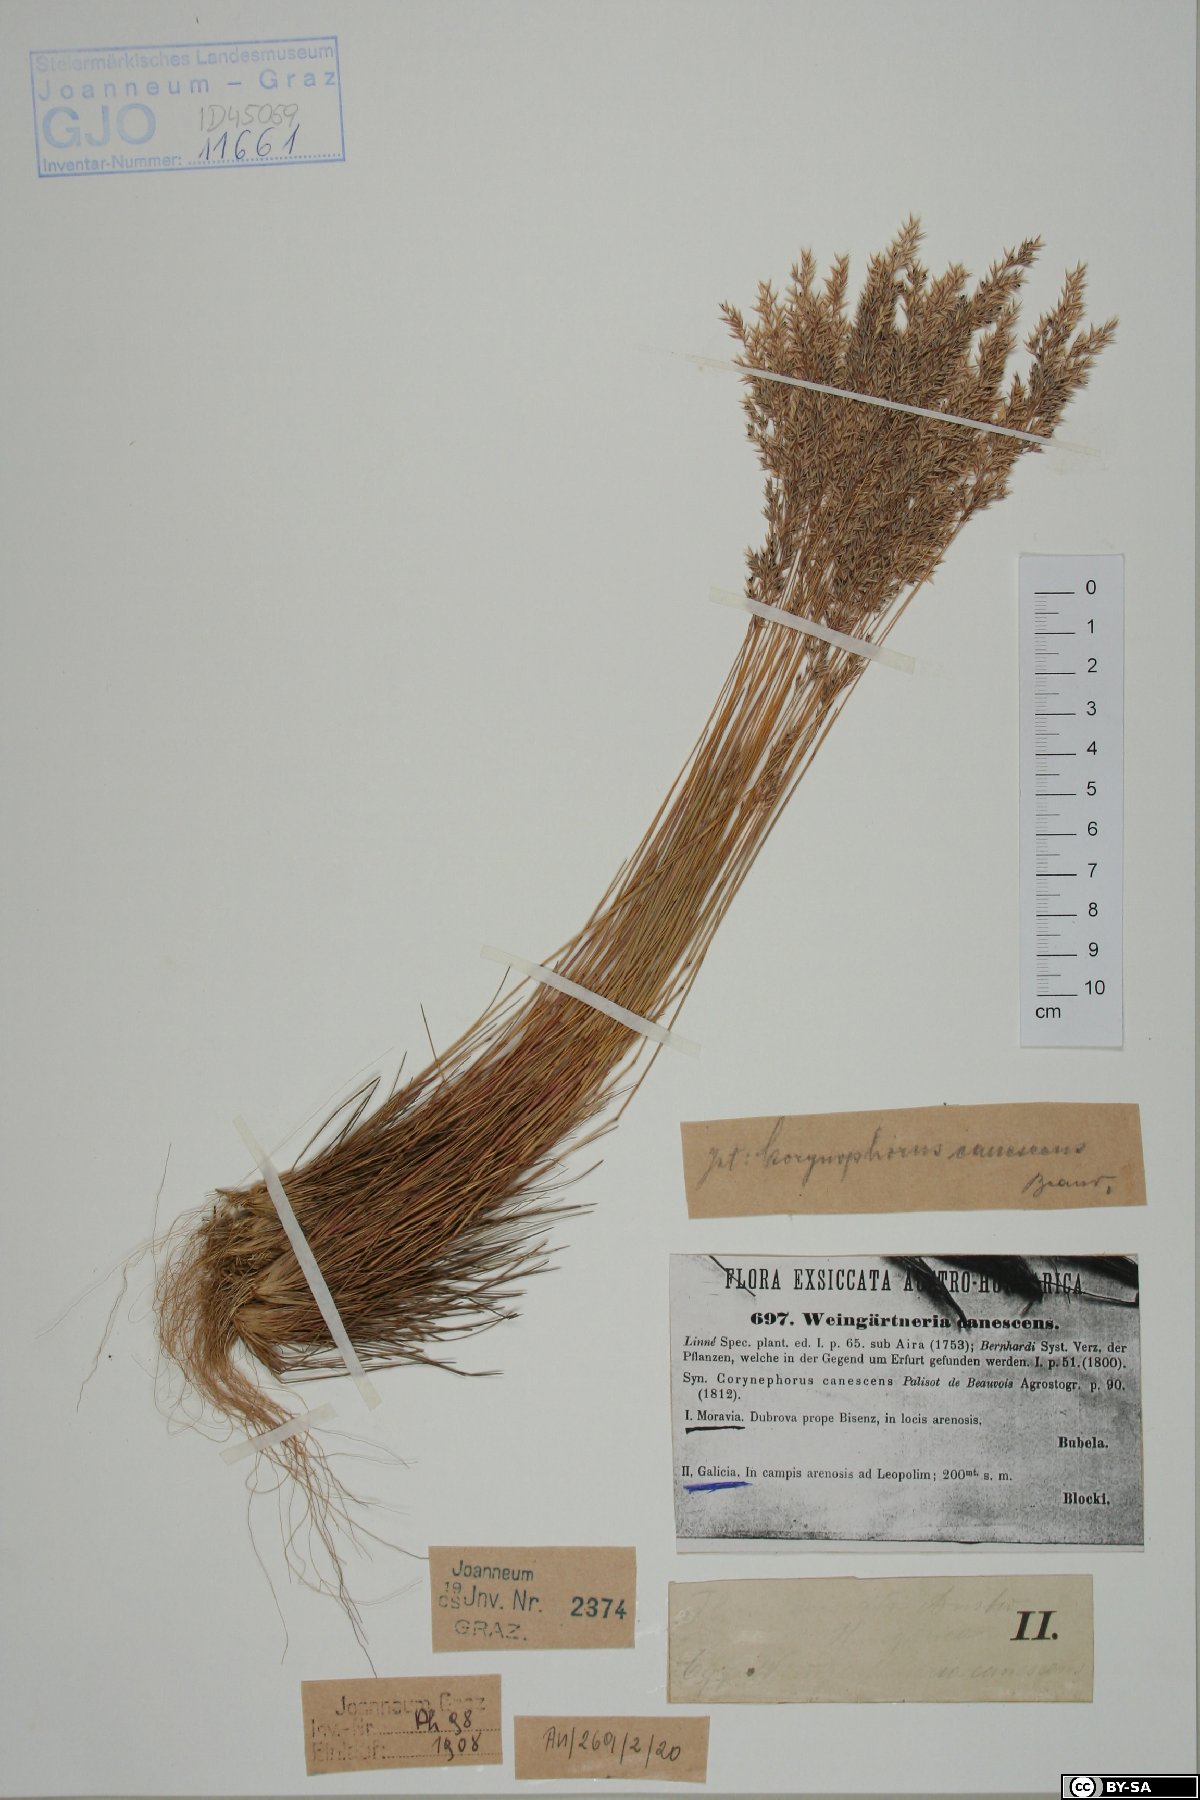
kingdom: Plantae
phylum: Tracheophyta
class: Liliopsida
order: Poales
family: Poaceae
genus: Corynephorus
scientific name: Corynephorus canescens
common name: Grey hair-grass
